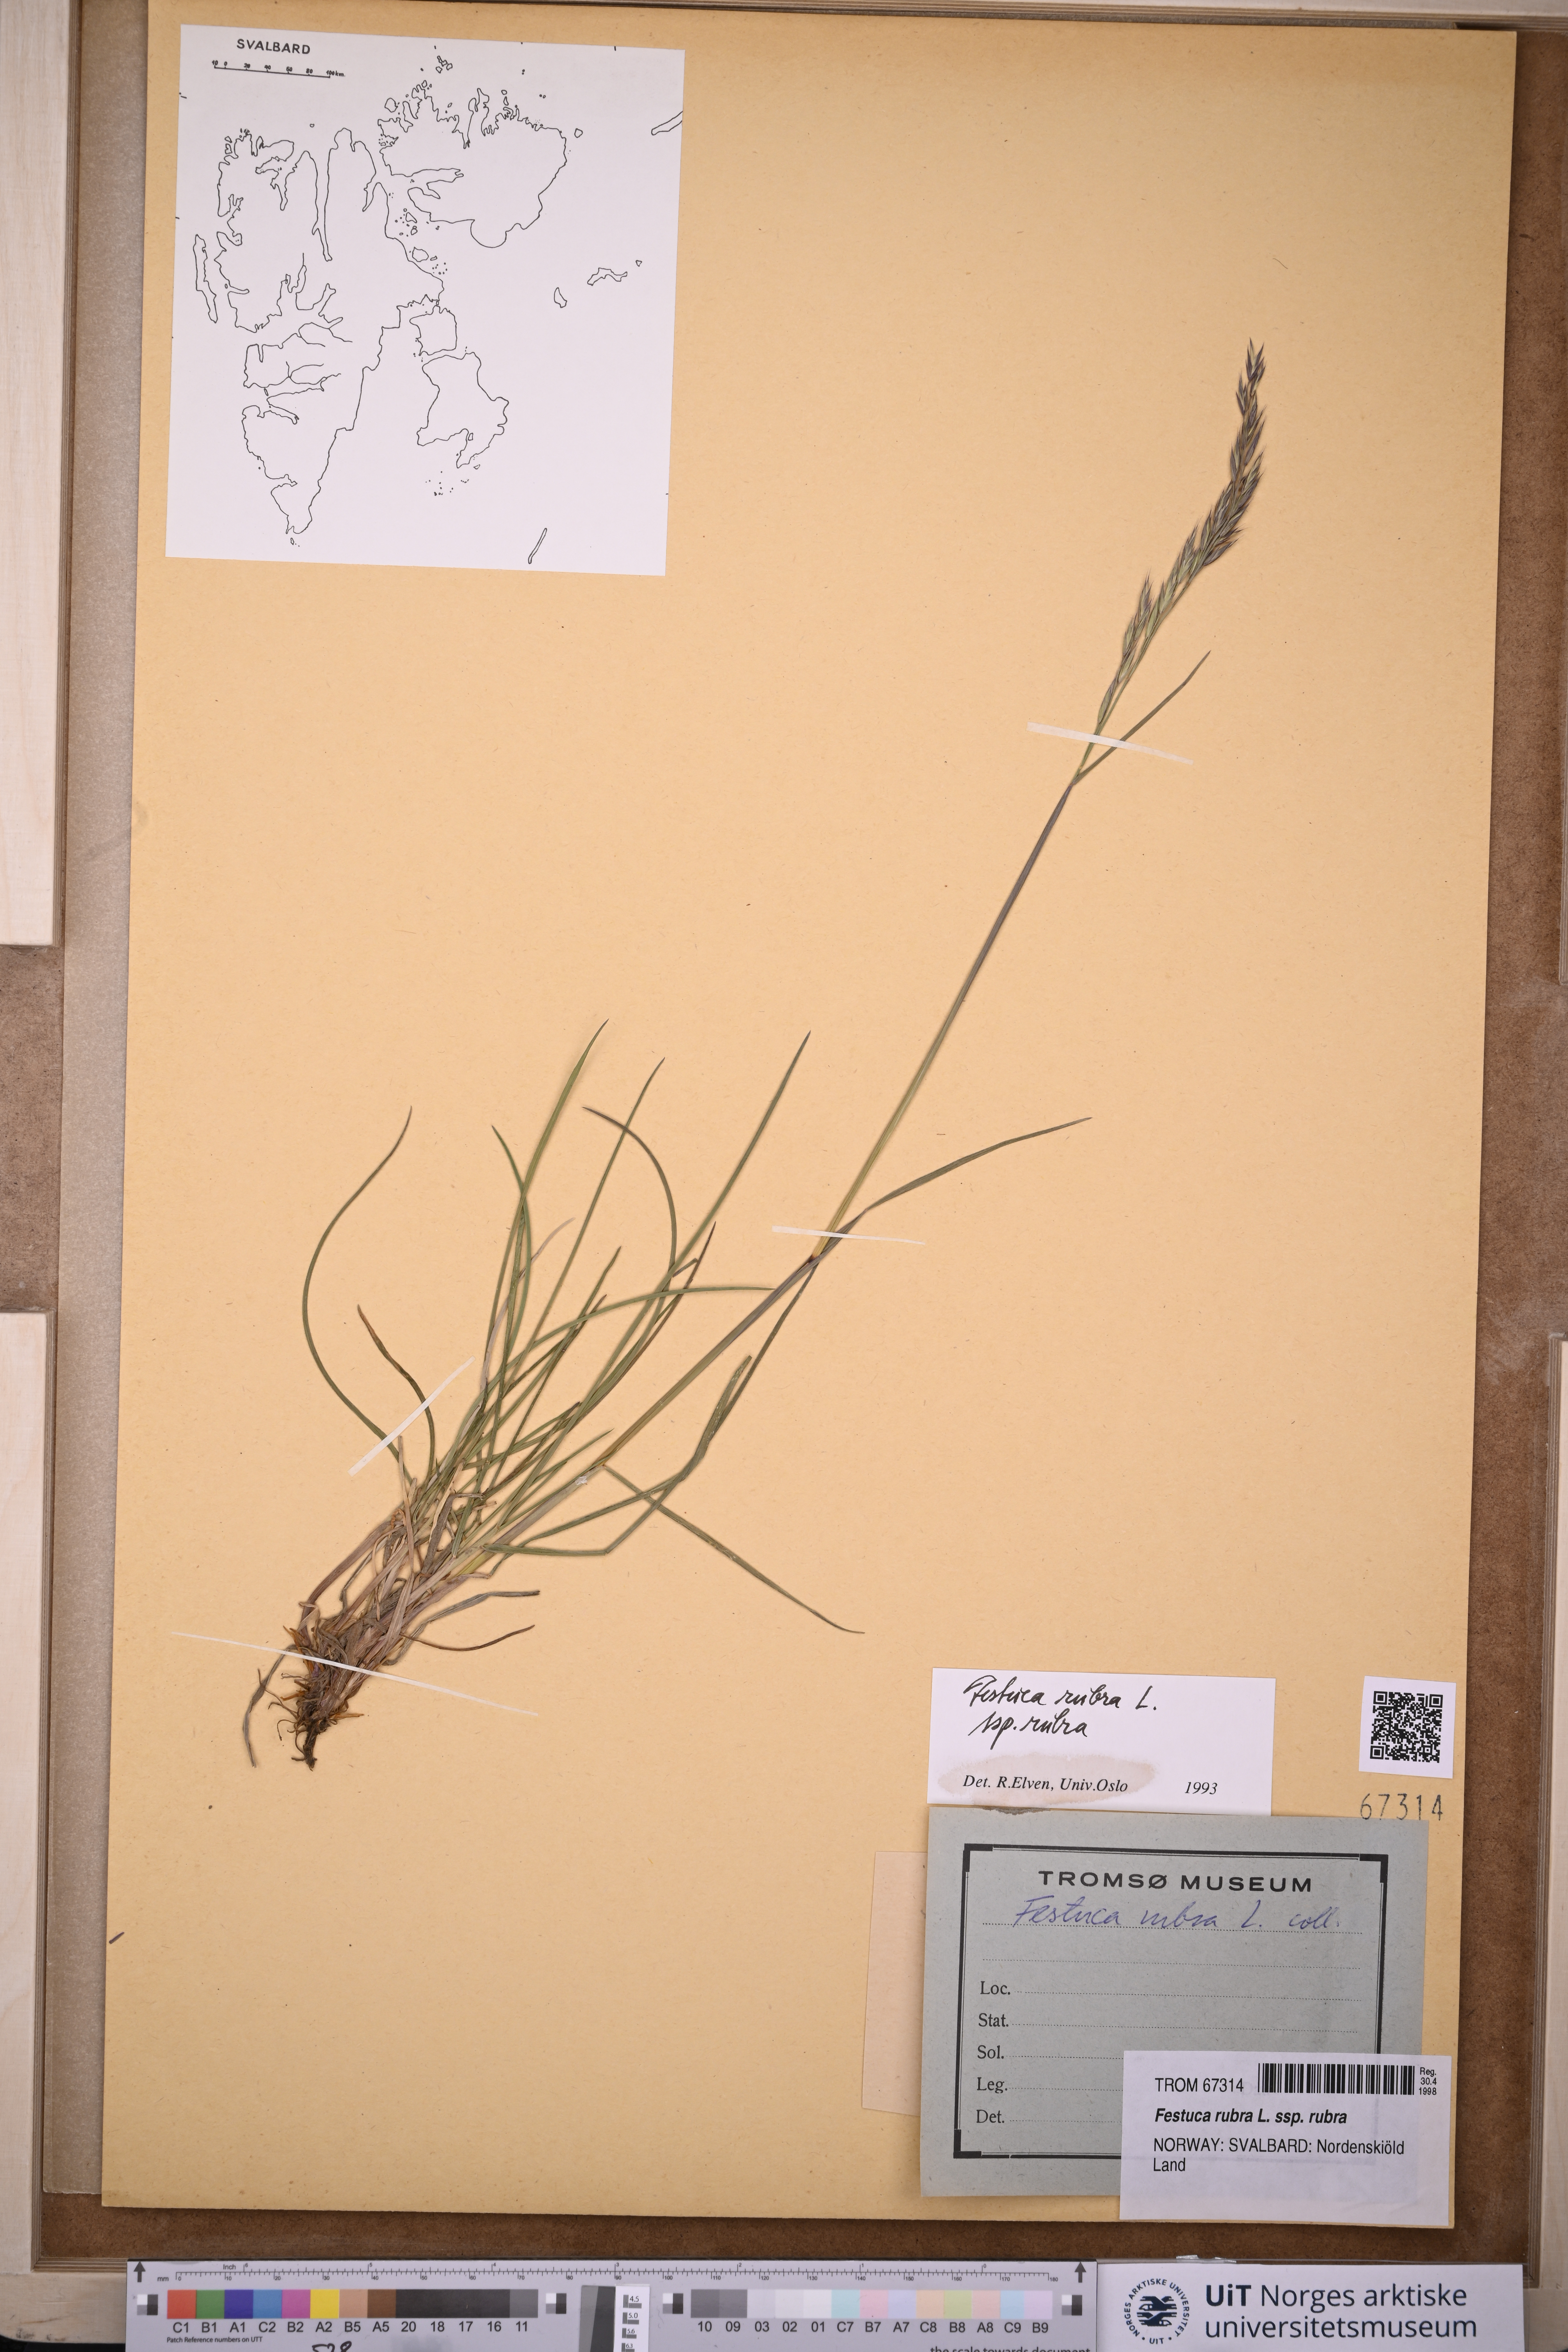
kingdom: Plantae
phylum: Tracheophyta
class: Liliopsida
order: Poales
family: Poaceae
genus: Festuca
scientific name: Festuca rubra
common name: Red fescue
